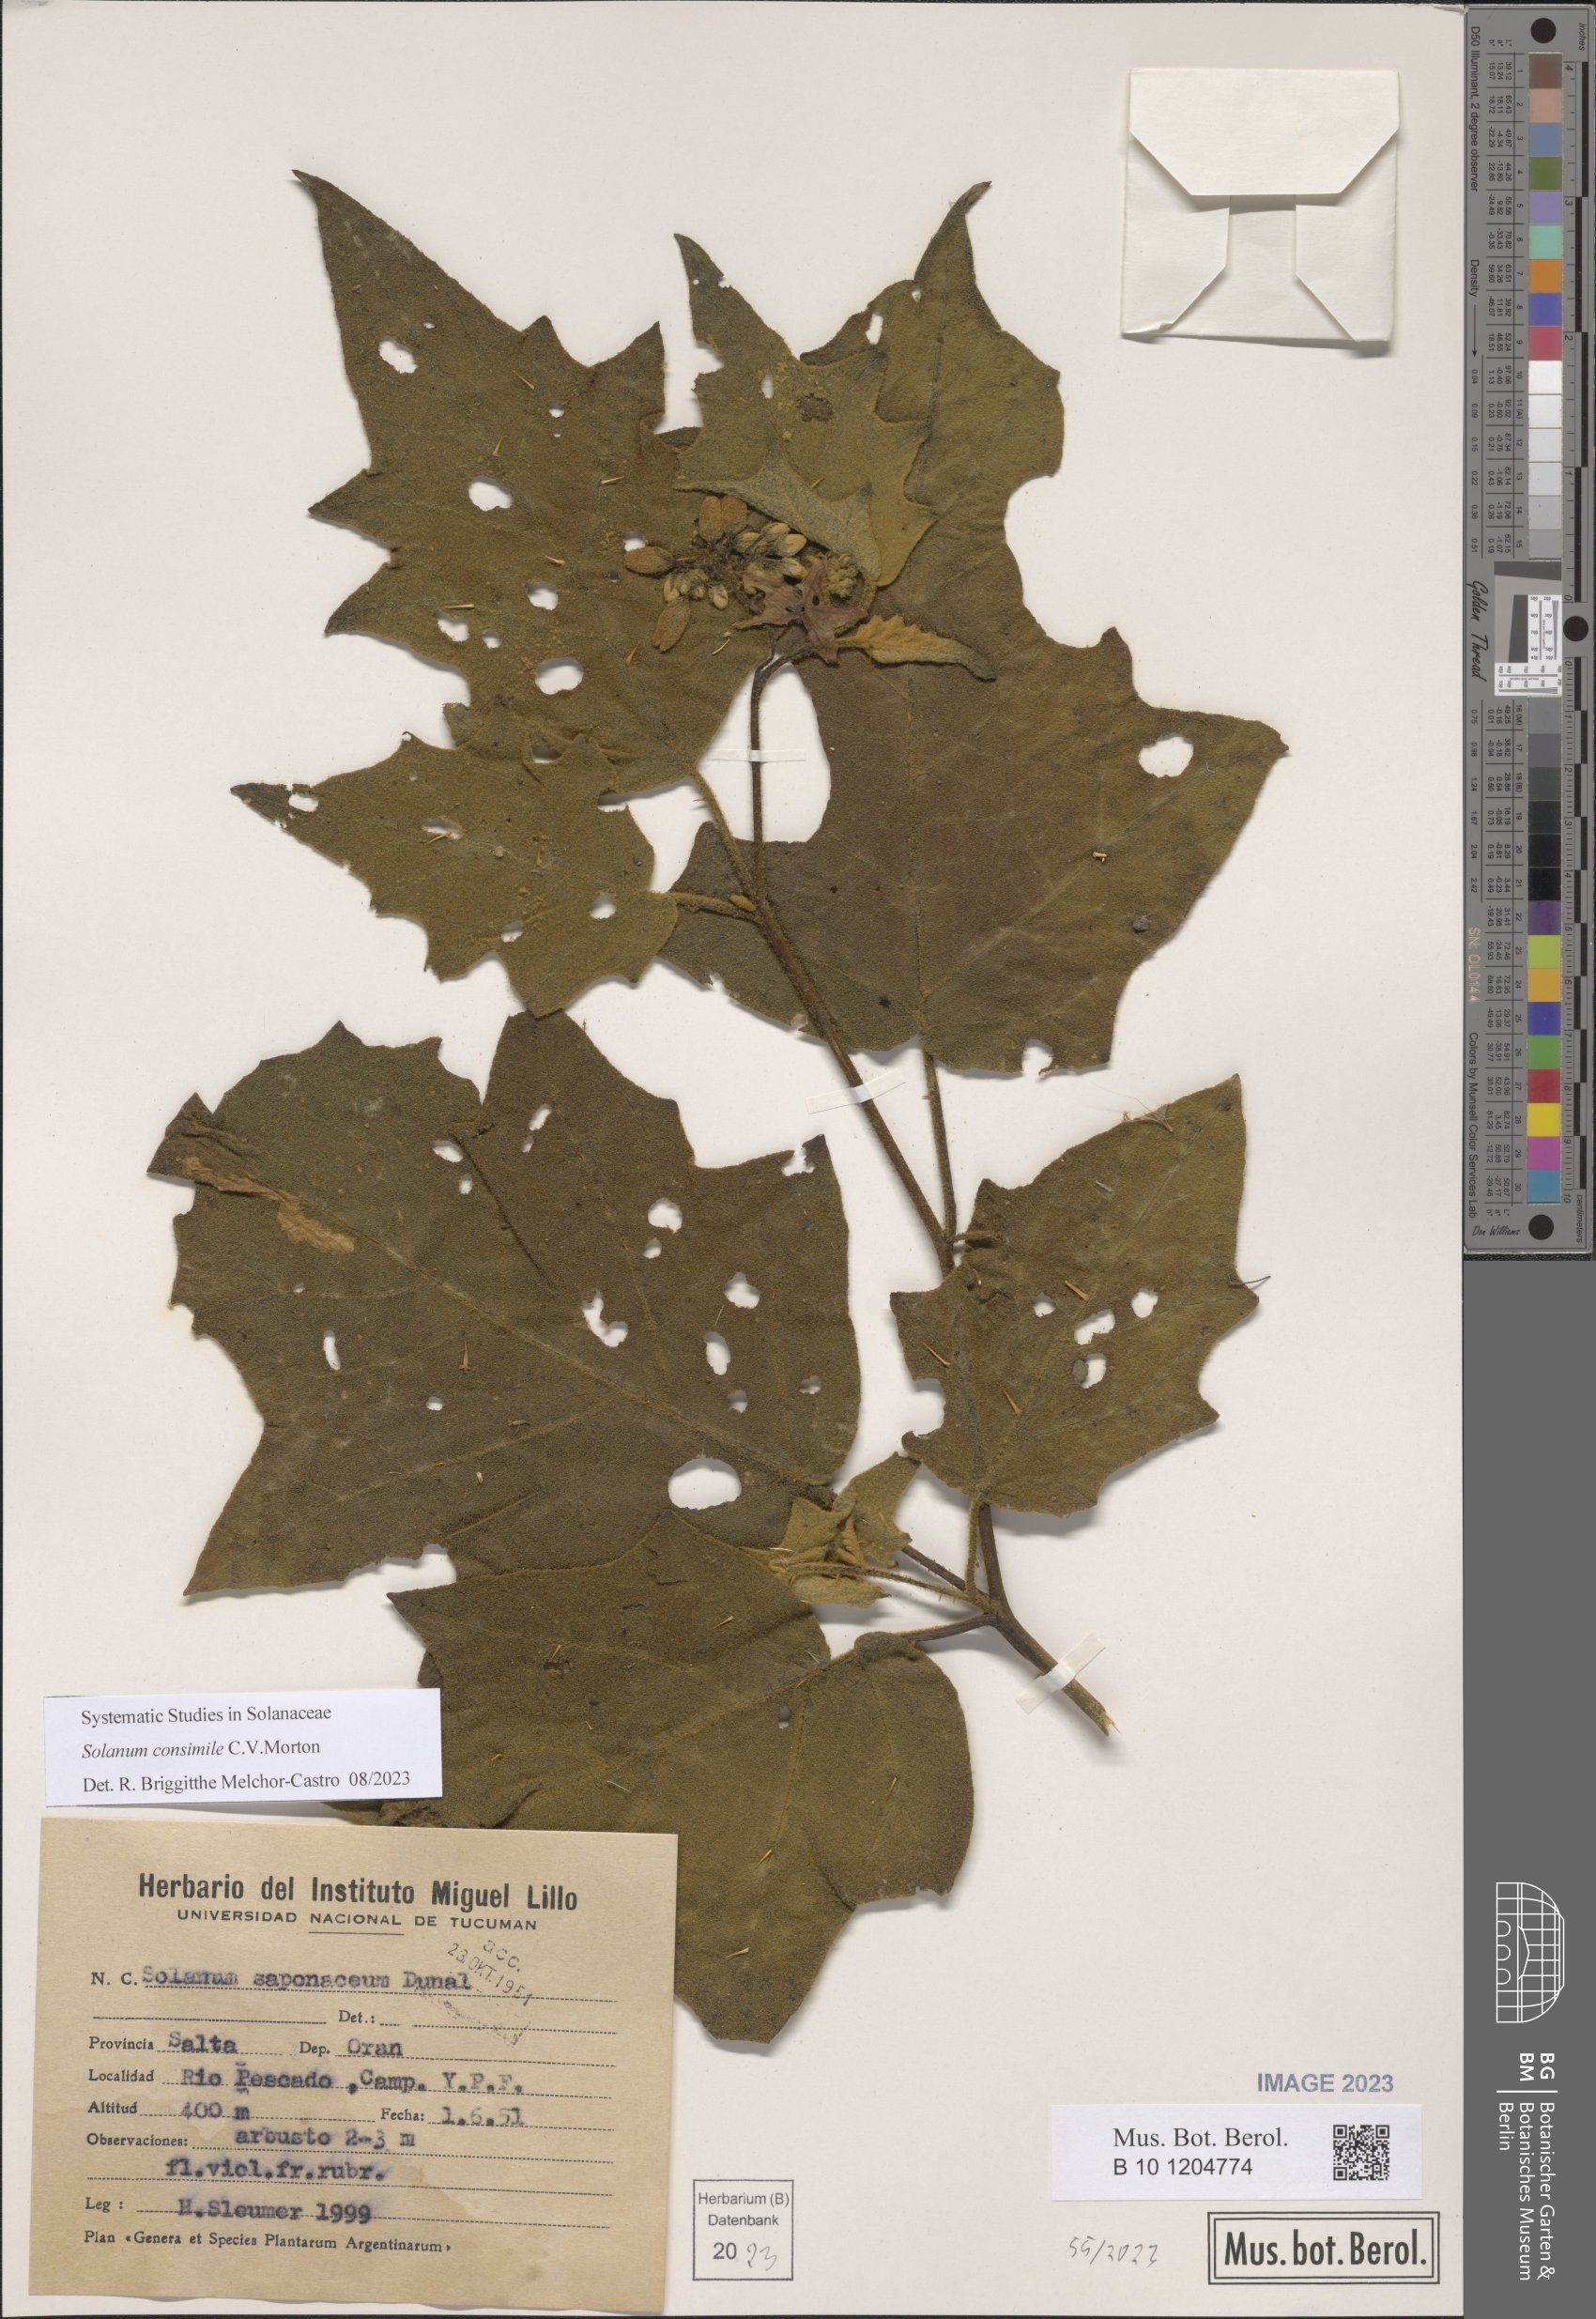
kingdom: Plantae
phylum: Tracheophyta
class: Magnoliopsida
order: Solanales
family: Solanaceae
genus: Solanum
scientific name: Solanum consimile
